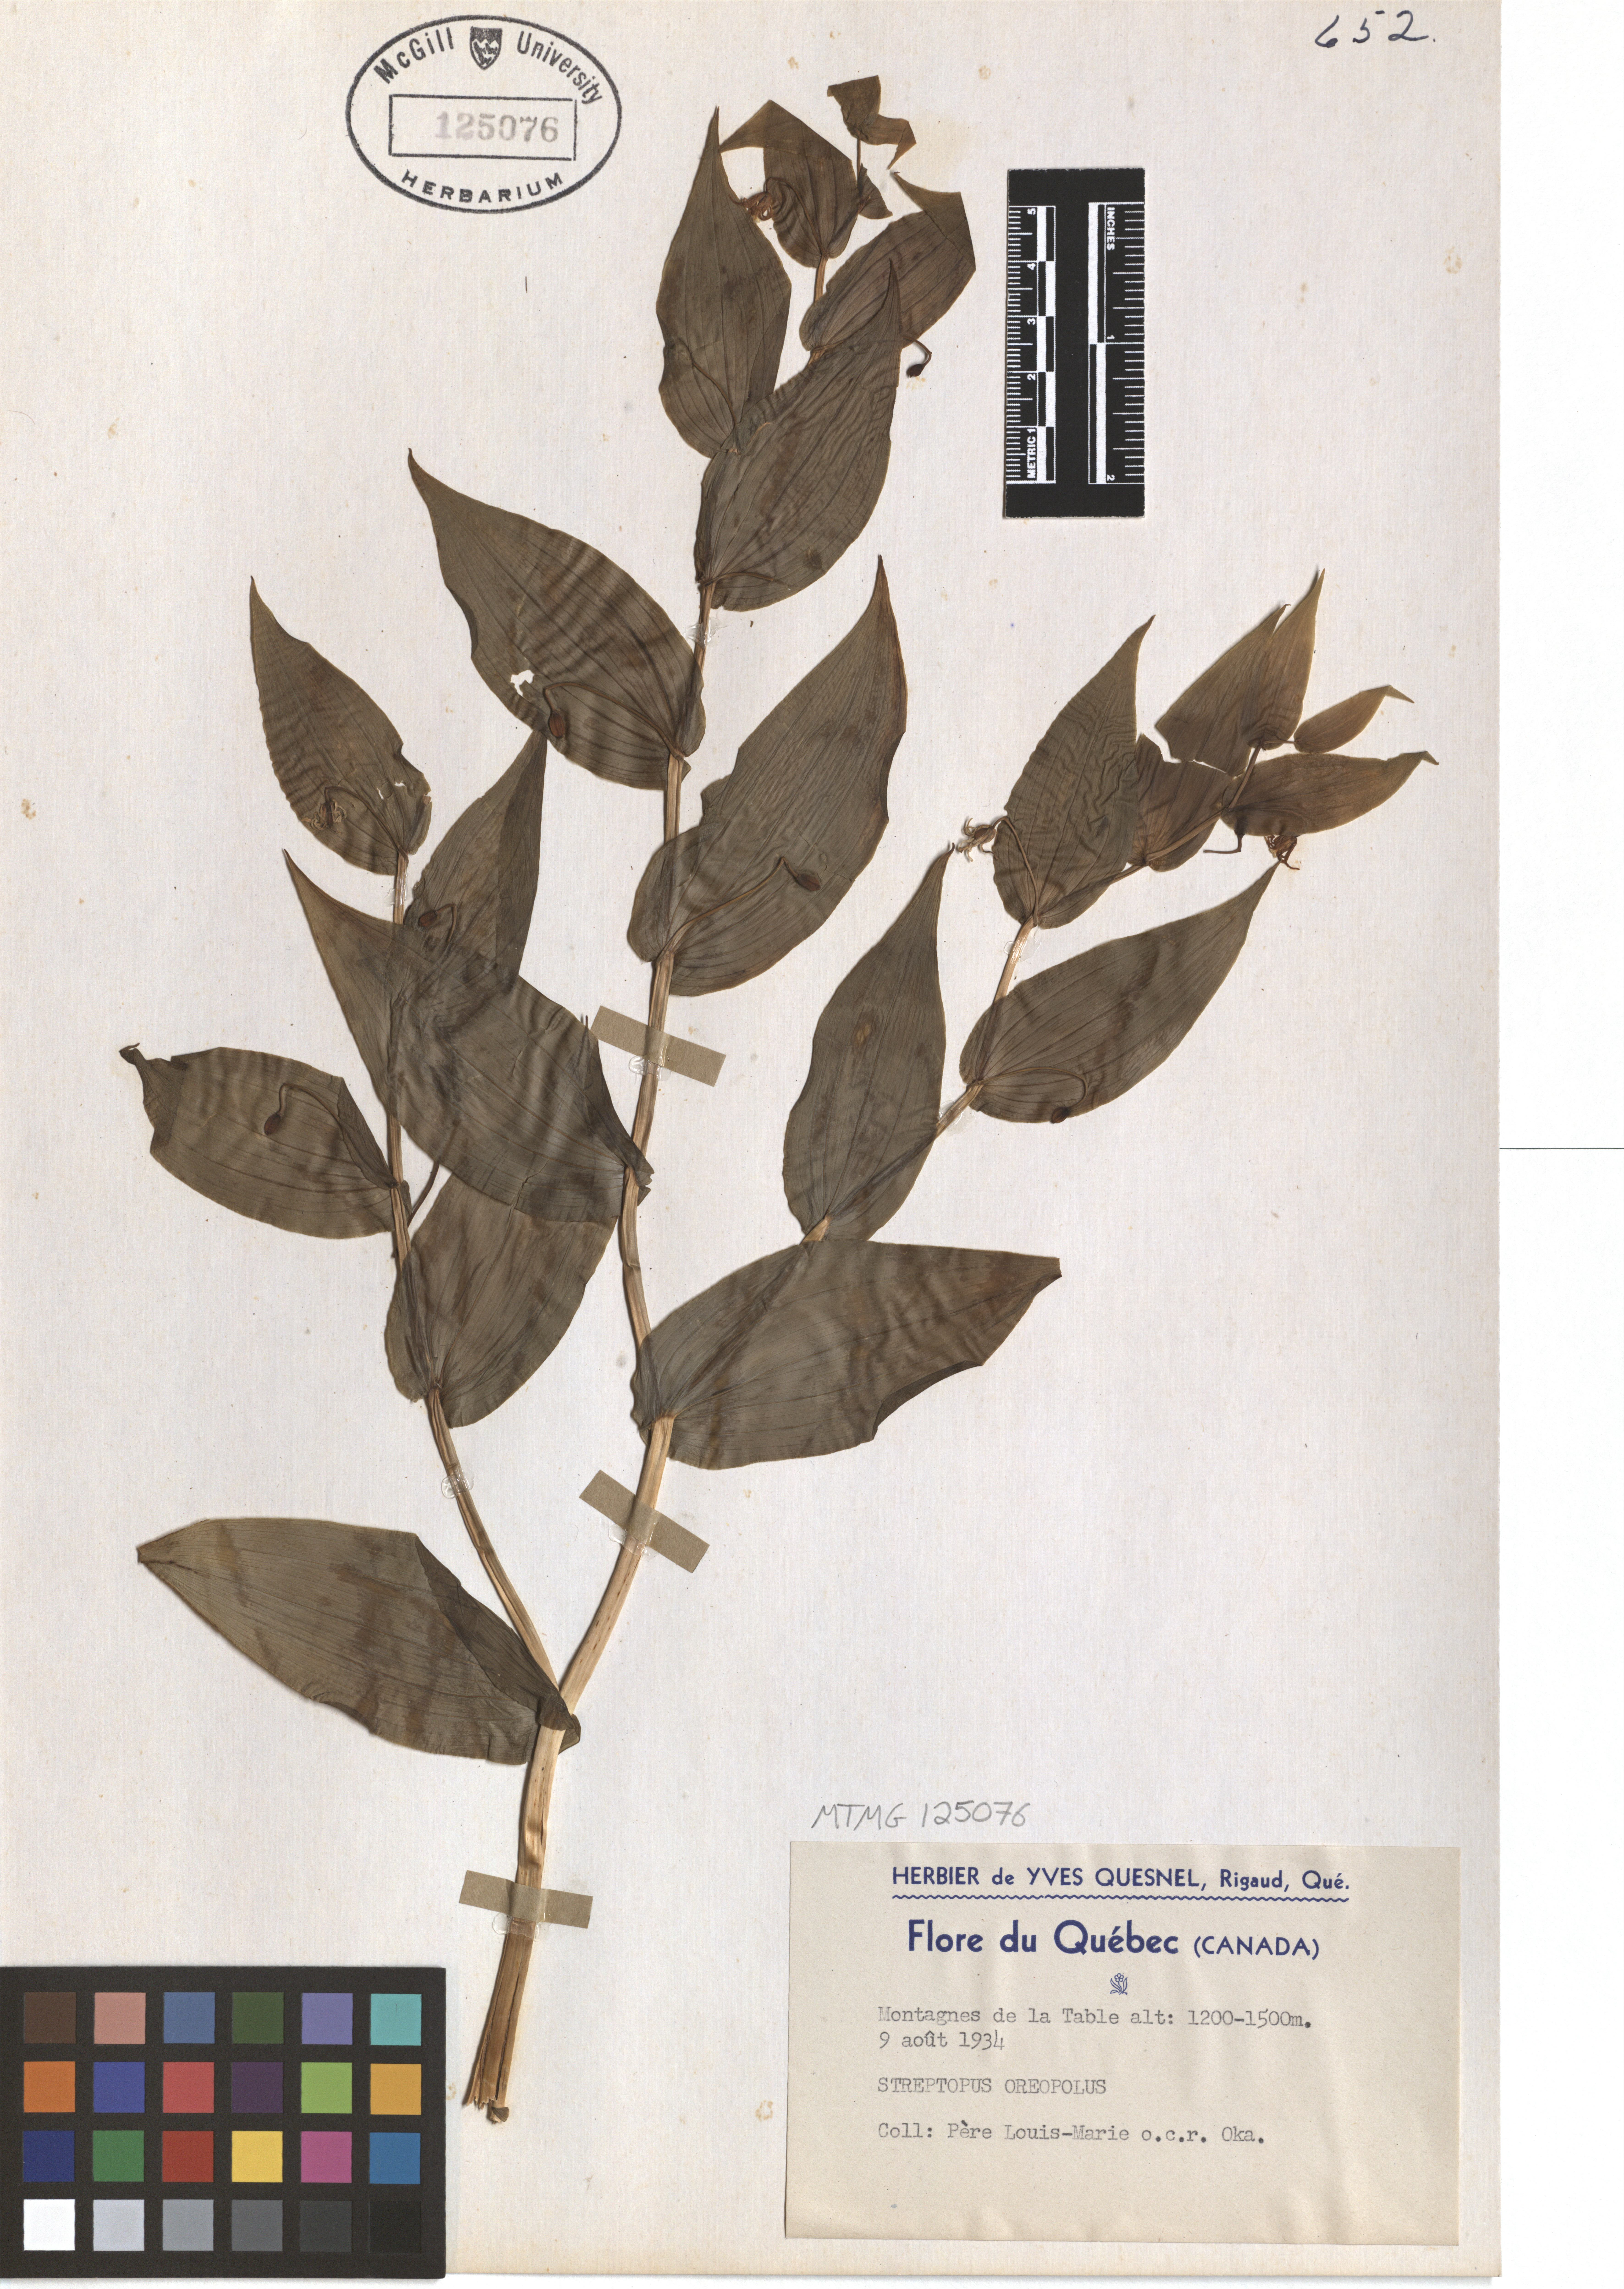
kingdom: Plantae
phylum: Tracheophyta
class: Liliopsida
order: Liliales
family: Liliaceae
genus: Streptopus
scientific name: Streptopus oreopolus
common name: Hybrid twisted-stalk
